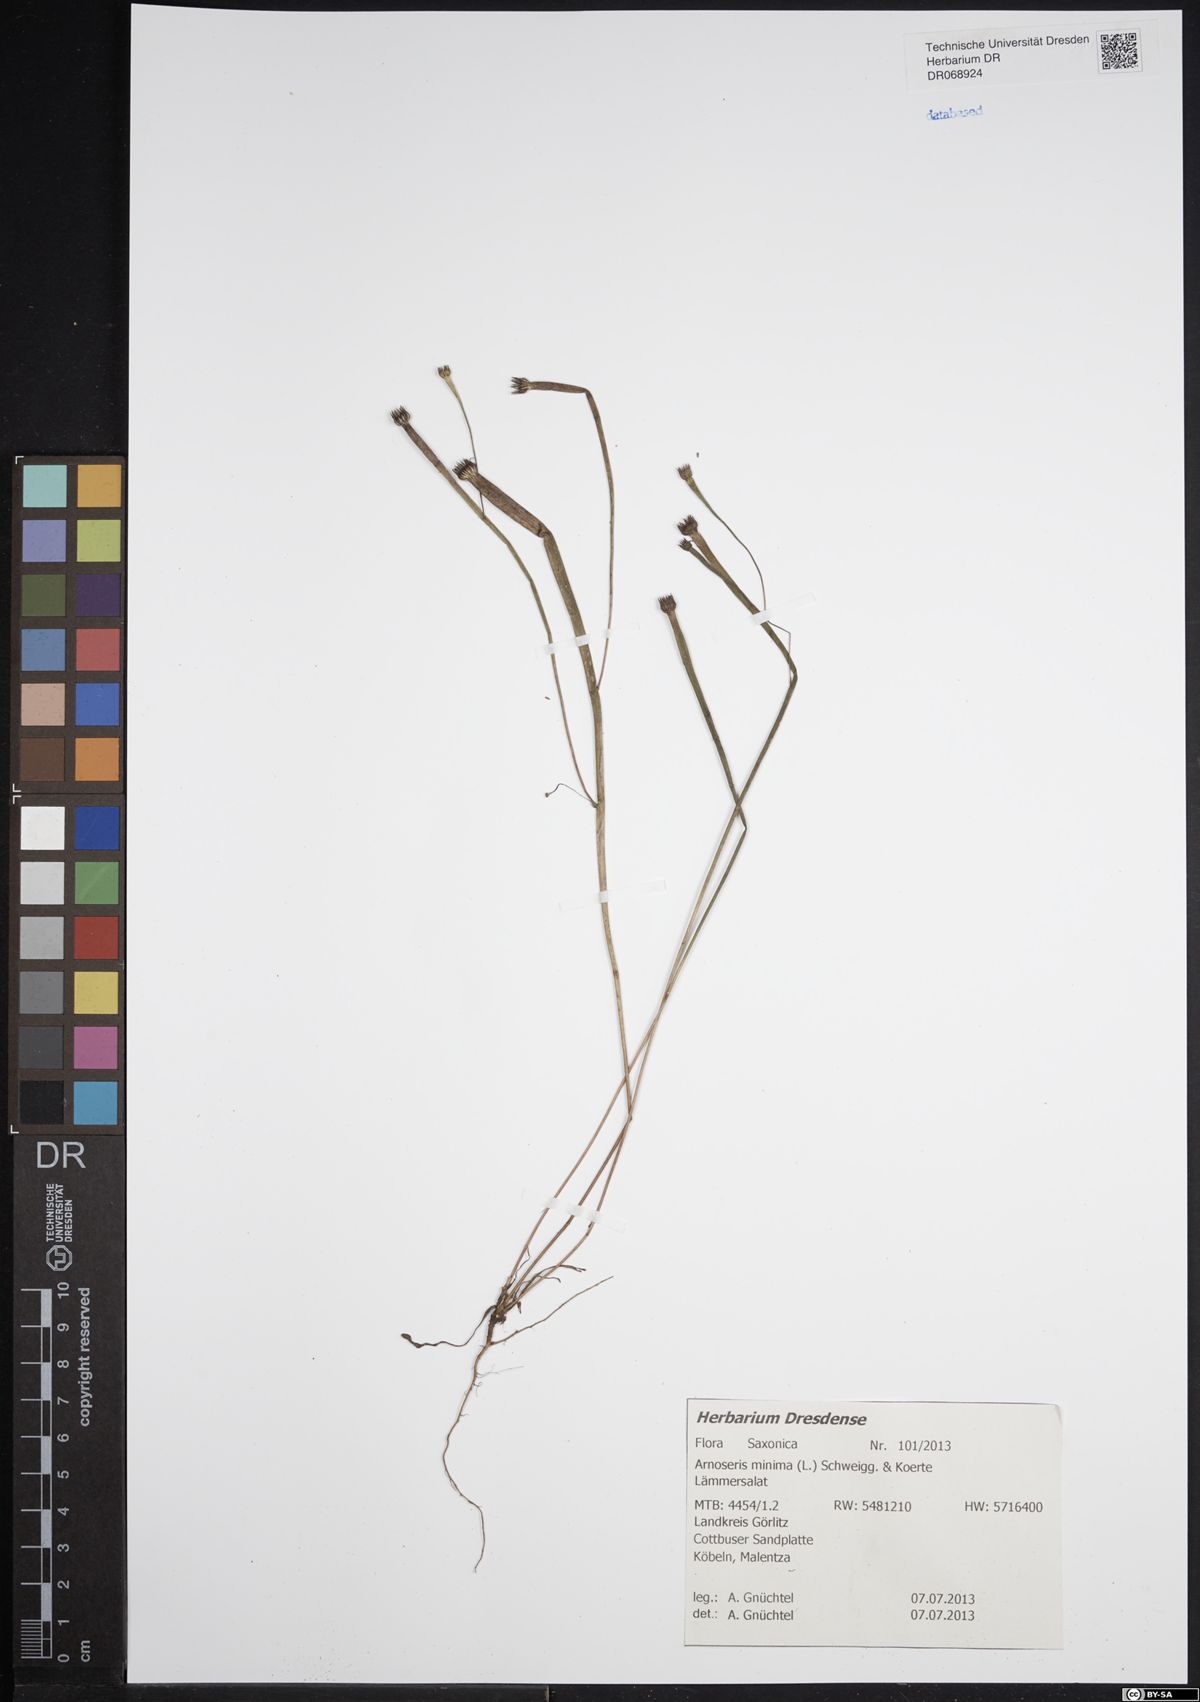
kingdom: Plantae
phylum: Tracheophyta
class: Magnoliopsida
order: Asterales
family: Asteraceae
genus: Arnoseris
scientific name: Arnoseris minima
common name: Lamb's succory
